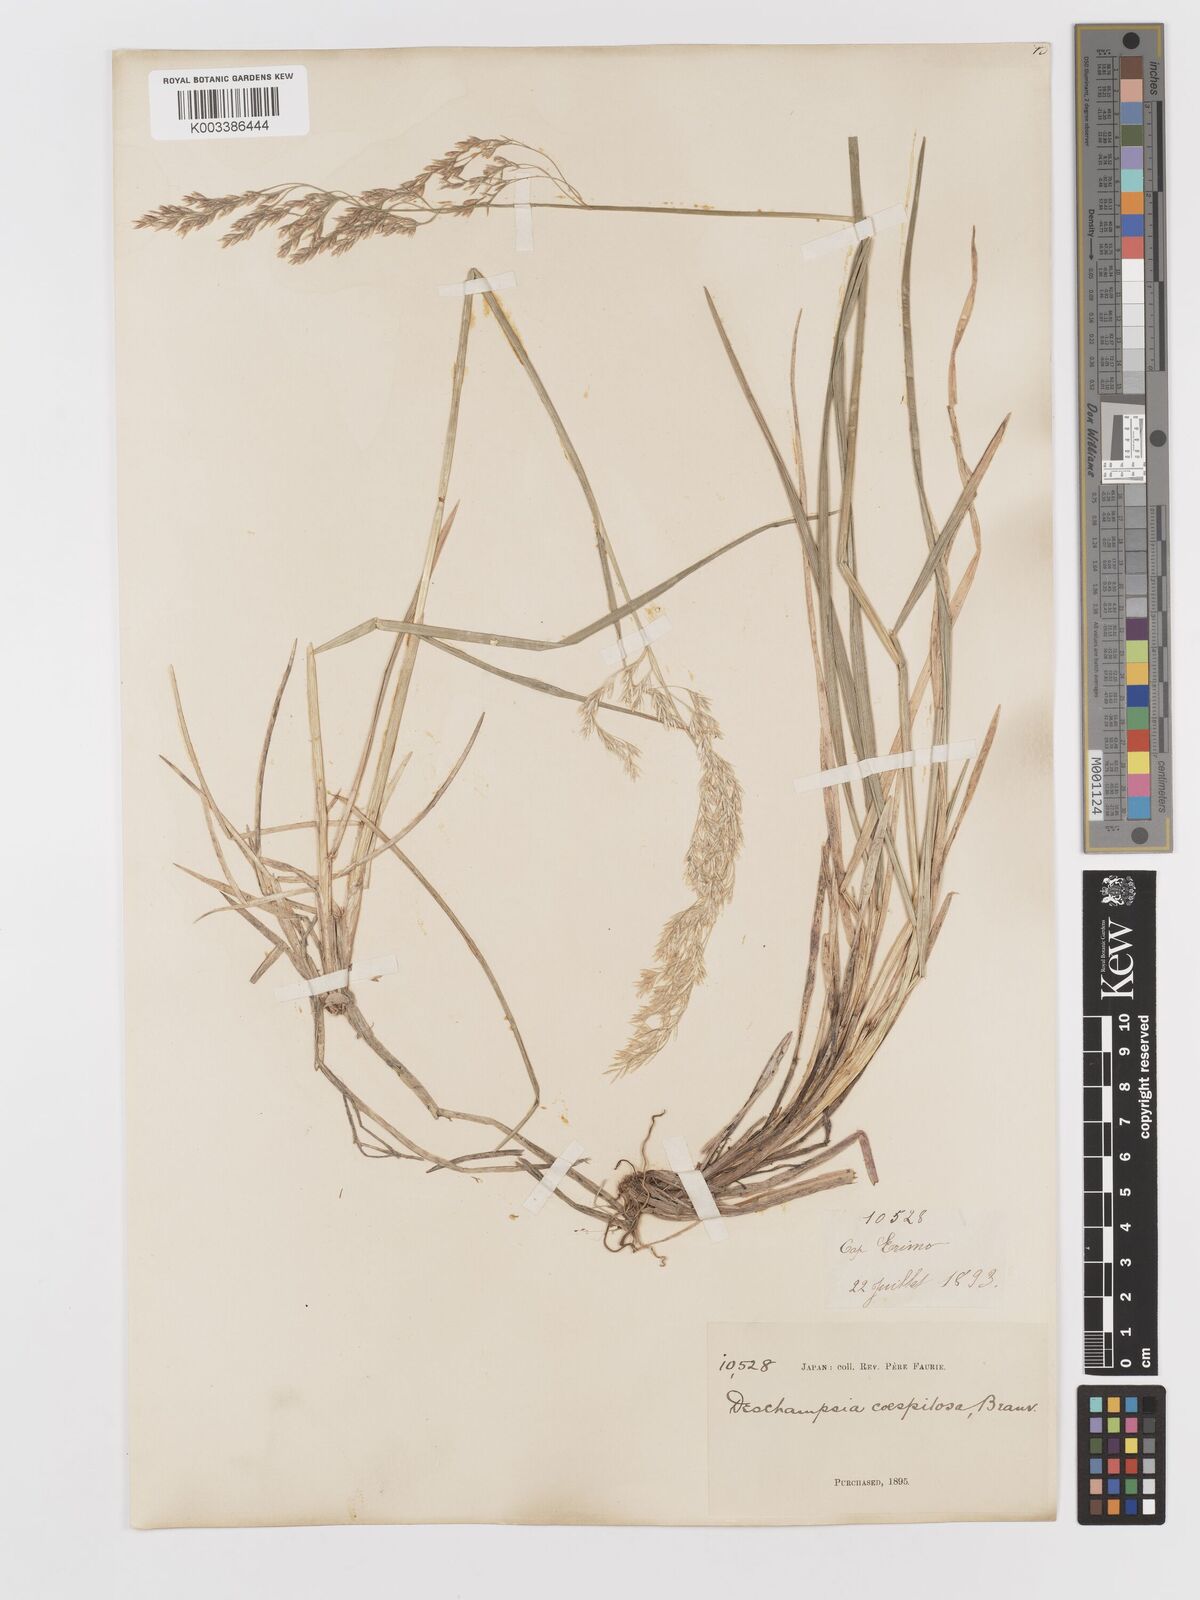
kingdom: Plantae
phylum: Tracheophyta
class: Liliopsida
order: Poales
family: Poaceae
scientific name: Poaceae
